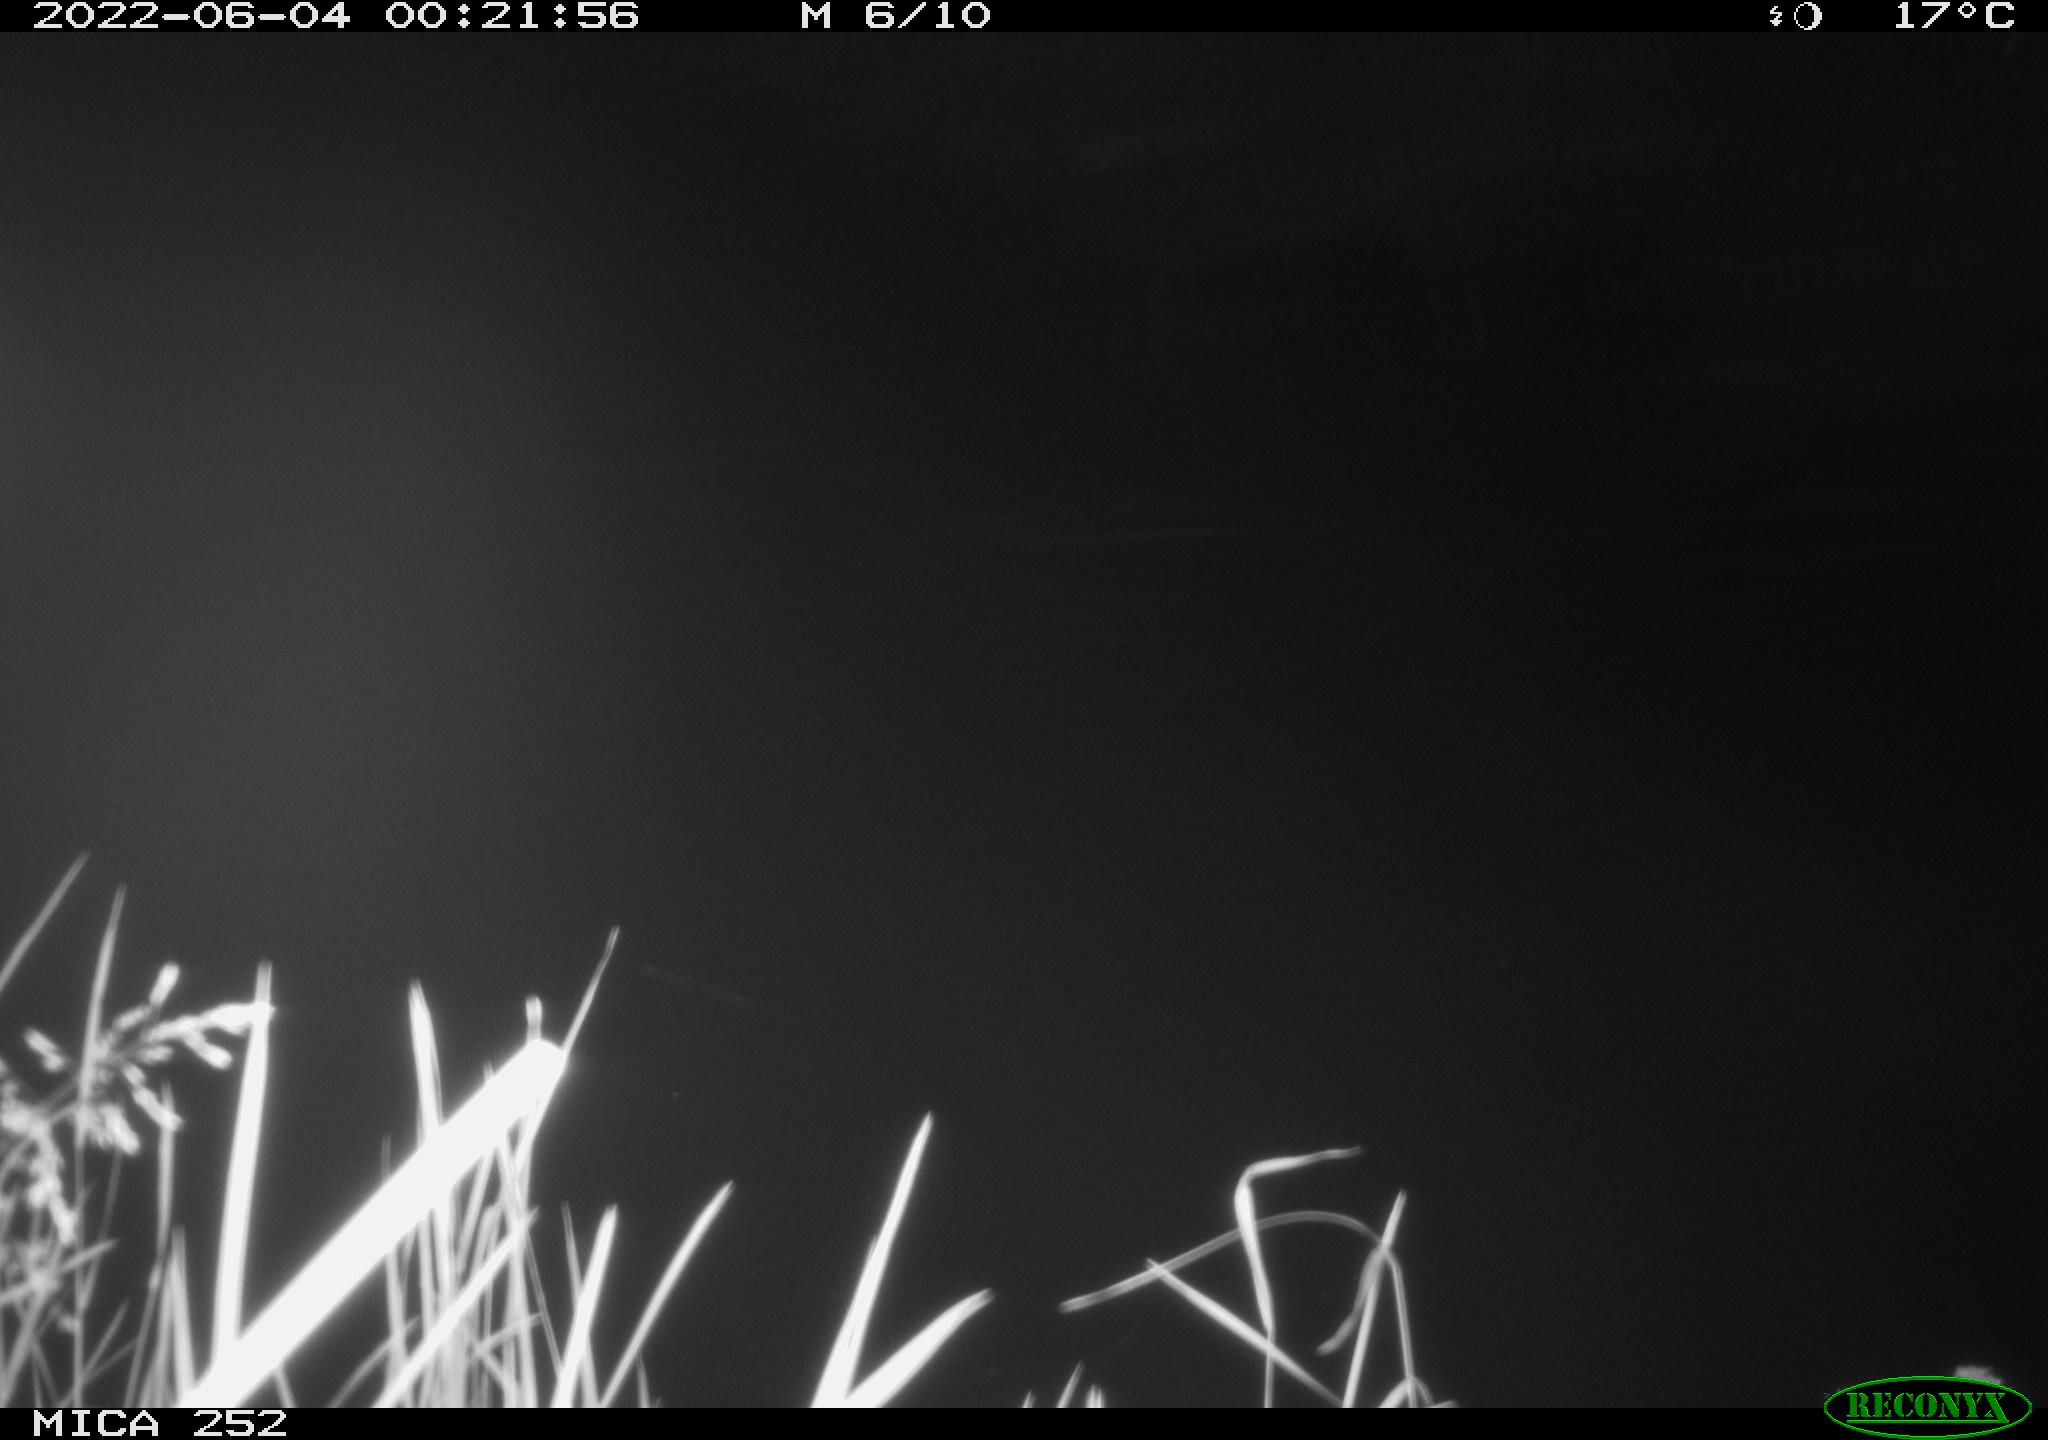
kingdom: Animalia
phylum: Chordata
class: Mammalia
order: Rodentia
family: Castoridae
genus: Castor
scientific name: Castor fiber
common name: Eurasian beaver
